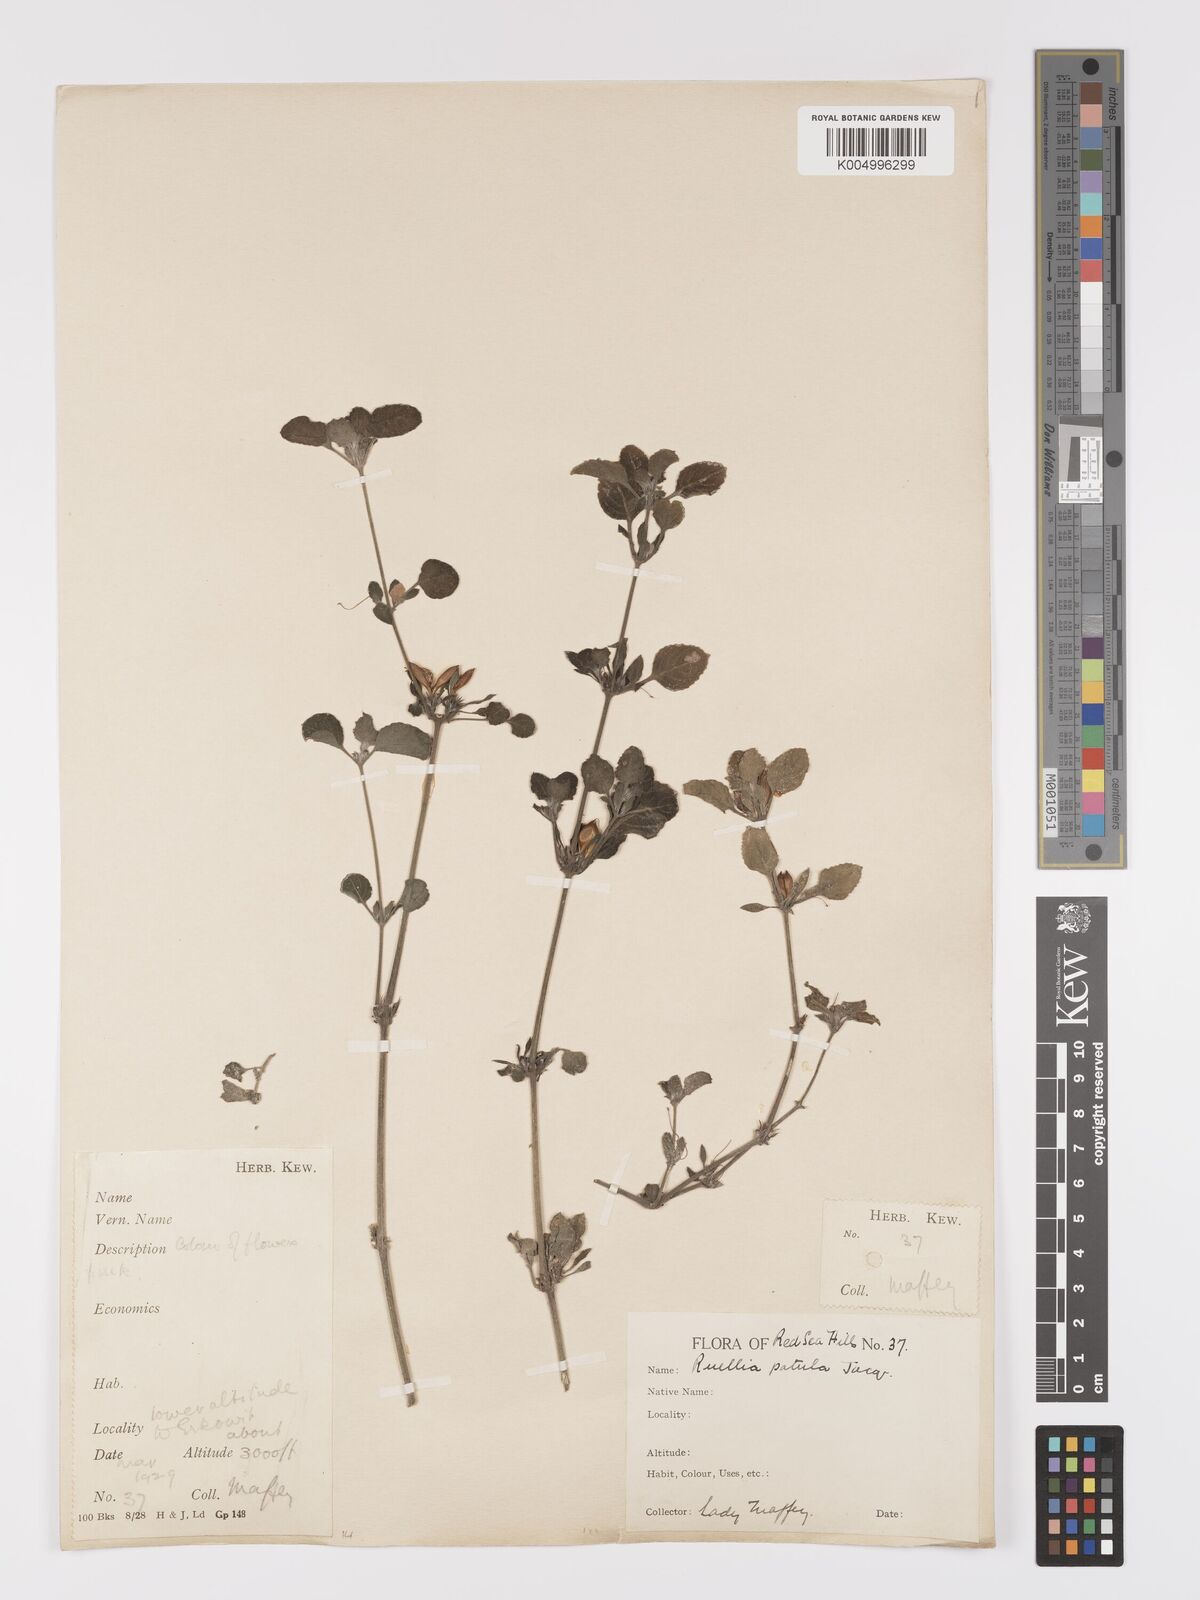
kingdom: Plantae
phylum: Tracheophyta
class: Magnoliopsida
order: Lamiales
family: Acanthaceae
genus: Ruellia
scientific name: Ruellia patula
